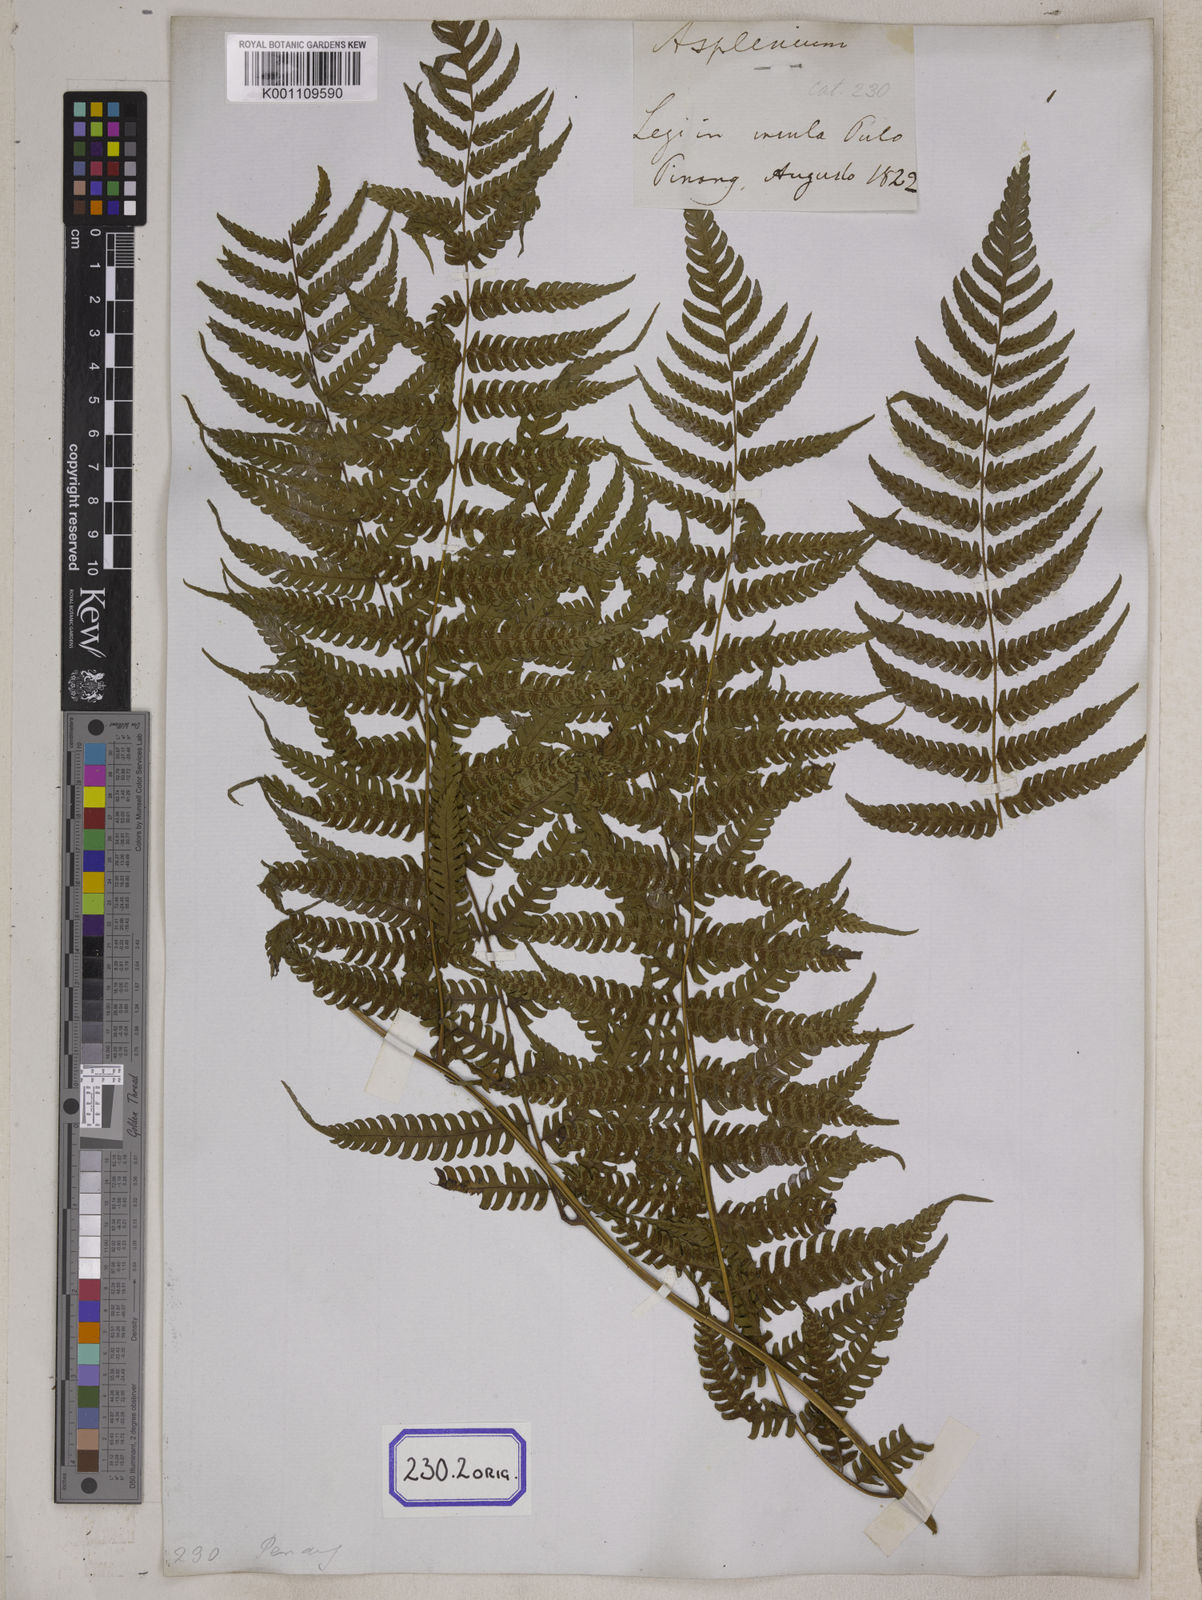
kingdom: Plantae
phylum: Tracheophyta
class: Polypodiopsida
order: Polypodiales
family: Athyriaceae
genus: Diplazium
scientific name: Diplazium maximum
